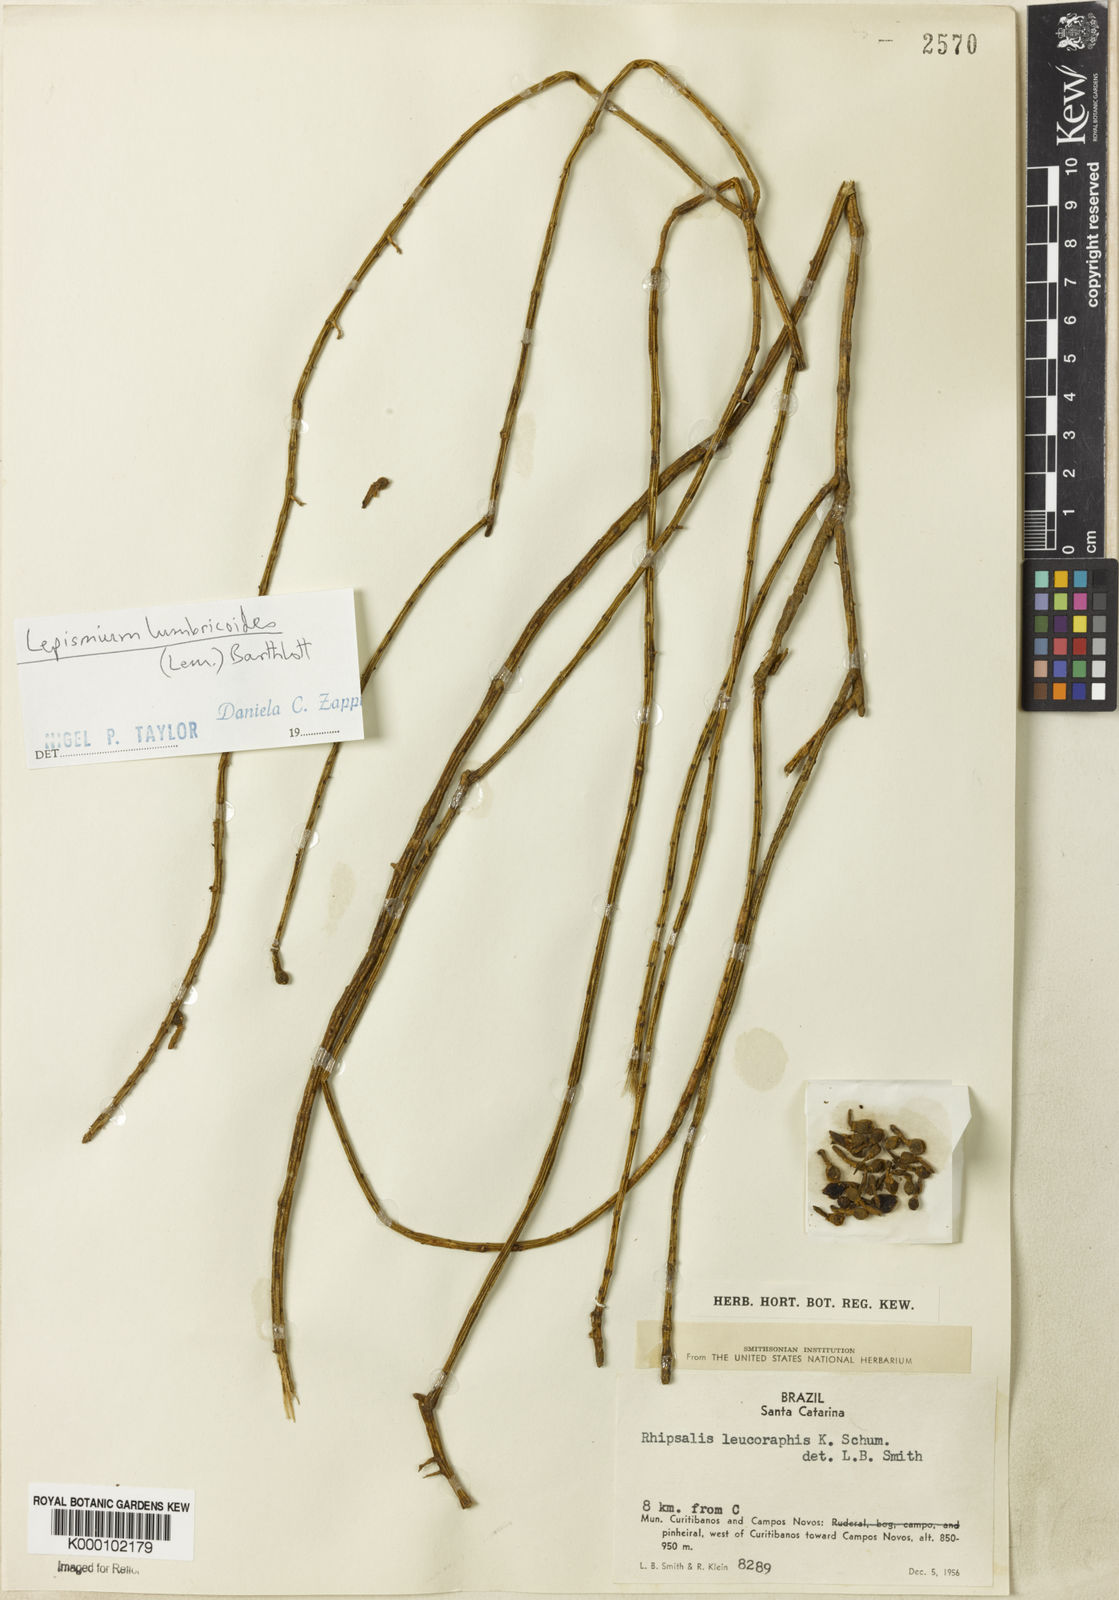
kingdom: Plantae
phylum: Tracheophyta
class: Magnoliopsida
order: Caryophyllales
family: Cactaceae
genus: Lepismium
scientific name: Lepismium lumbricoides
